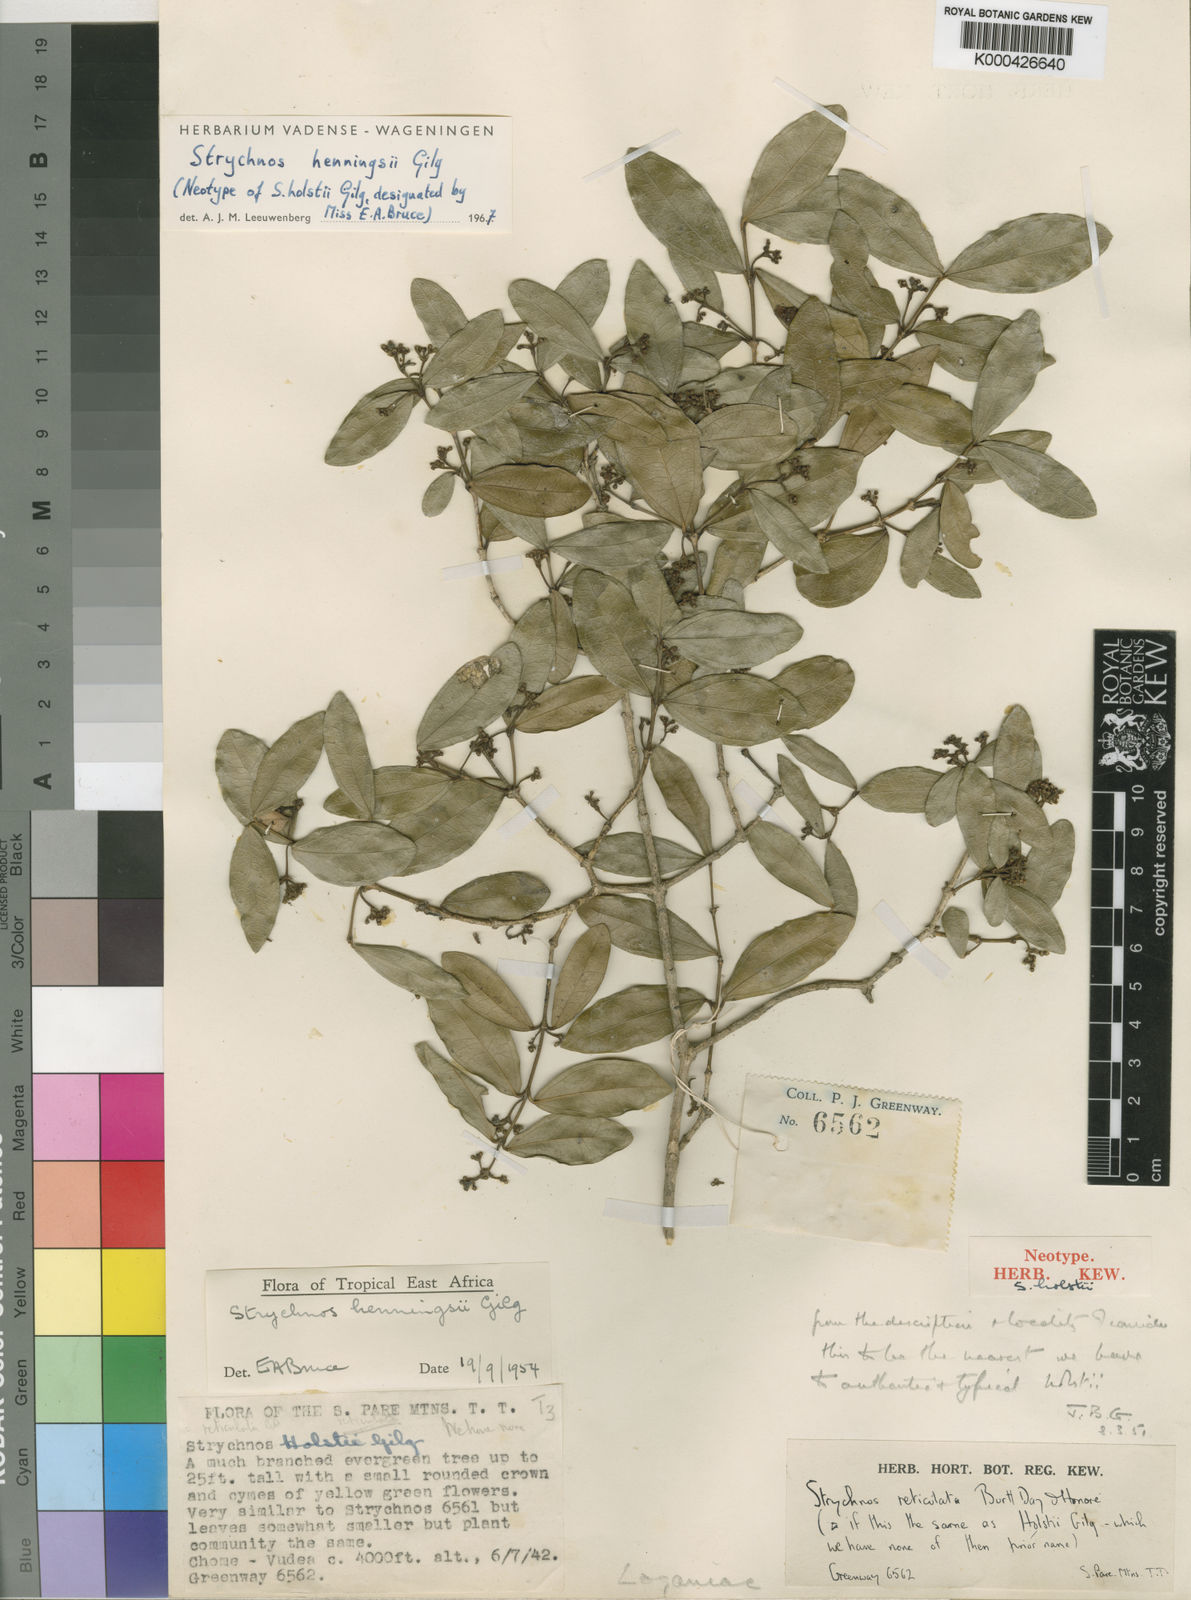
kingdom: Plantae
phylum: Tracheophyta
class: Magnoliopsida
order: Gentianales
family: Loganiaceae
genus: Strychnos
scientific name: Strychnos henningsii
